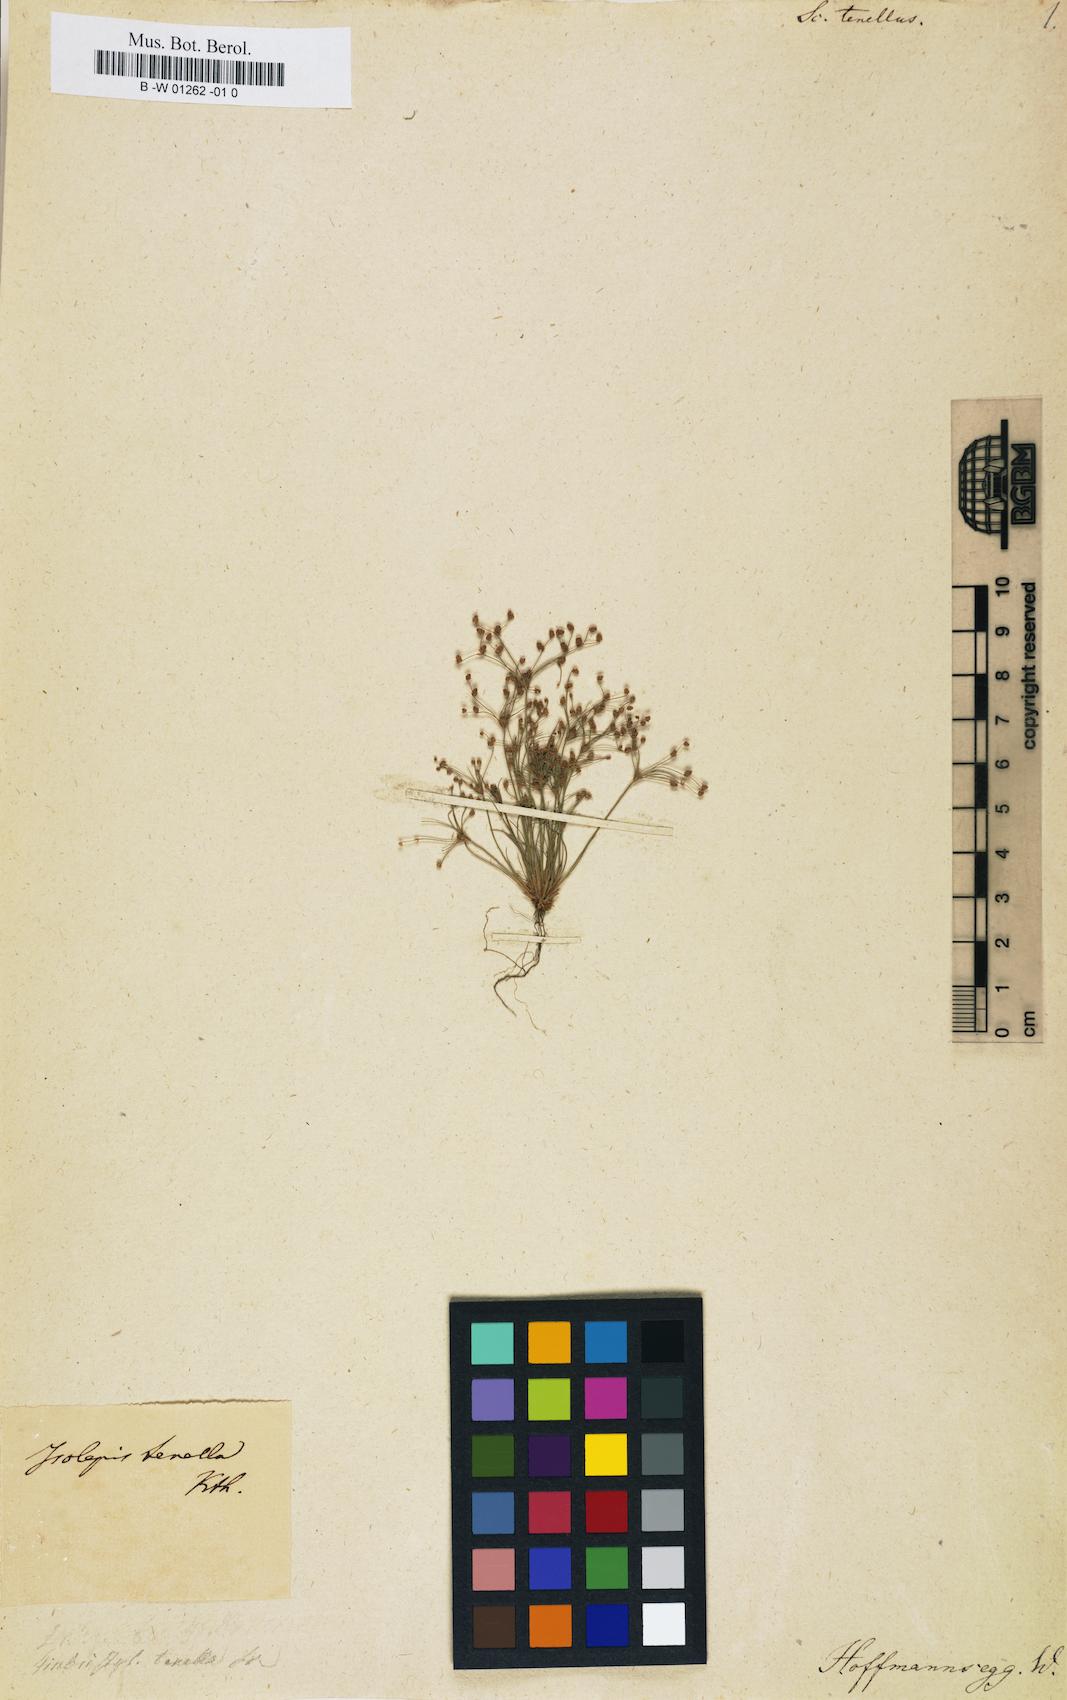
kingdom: Plantae
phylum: Tracheophyta
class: Liliopsida
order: Poales
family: Cyperaceae
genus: Bulbostylis
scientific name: Bulbostylis tenella
